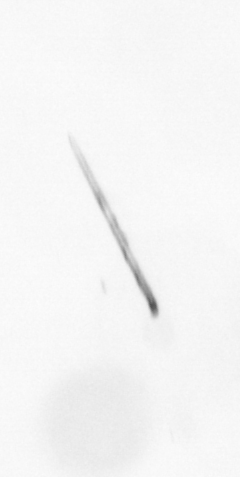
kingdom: Chromista
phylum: Ochrophyta
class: Bacillariophyceae
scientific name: Bacillariophyceae
